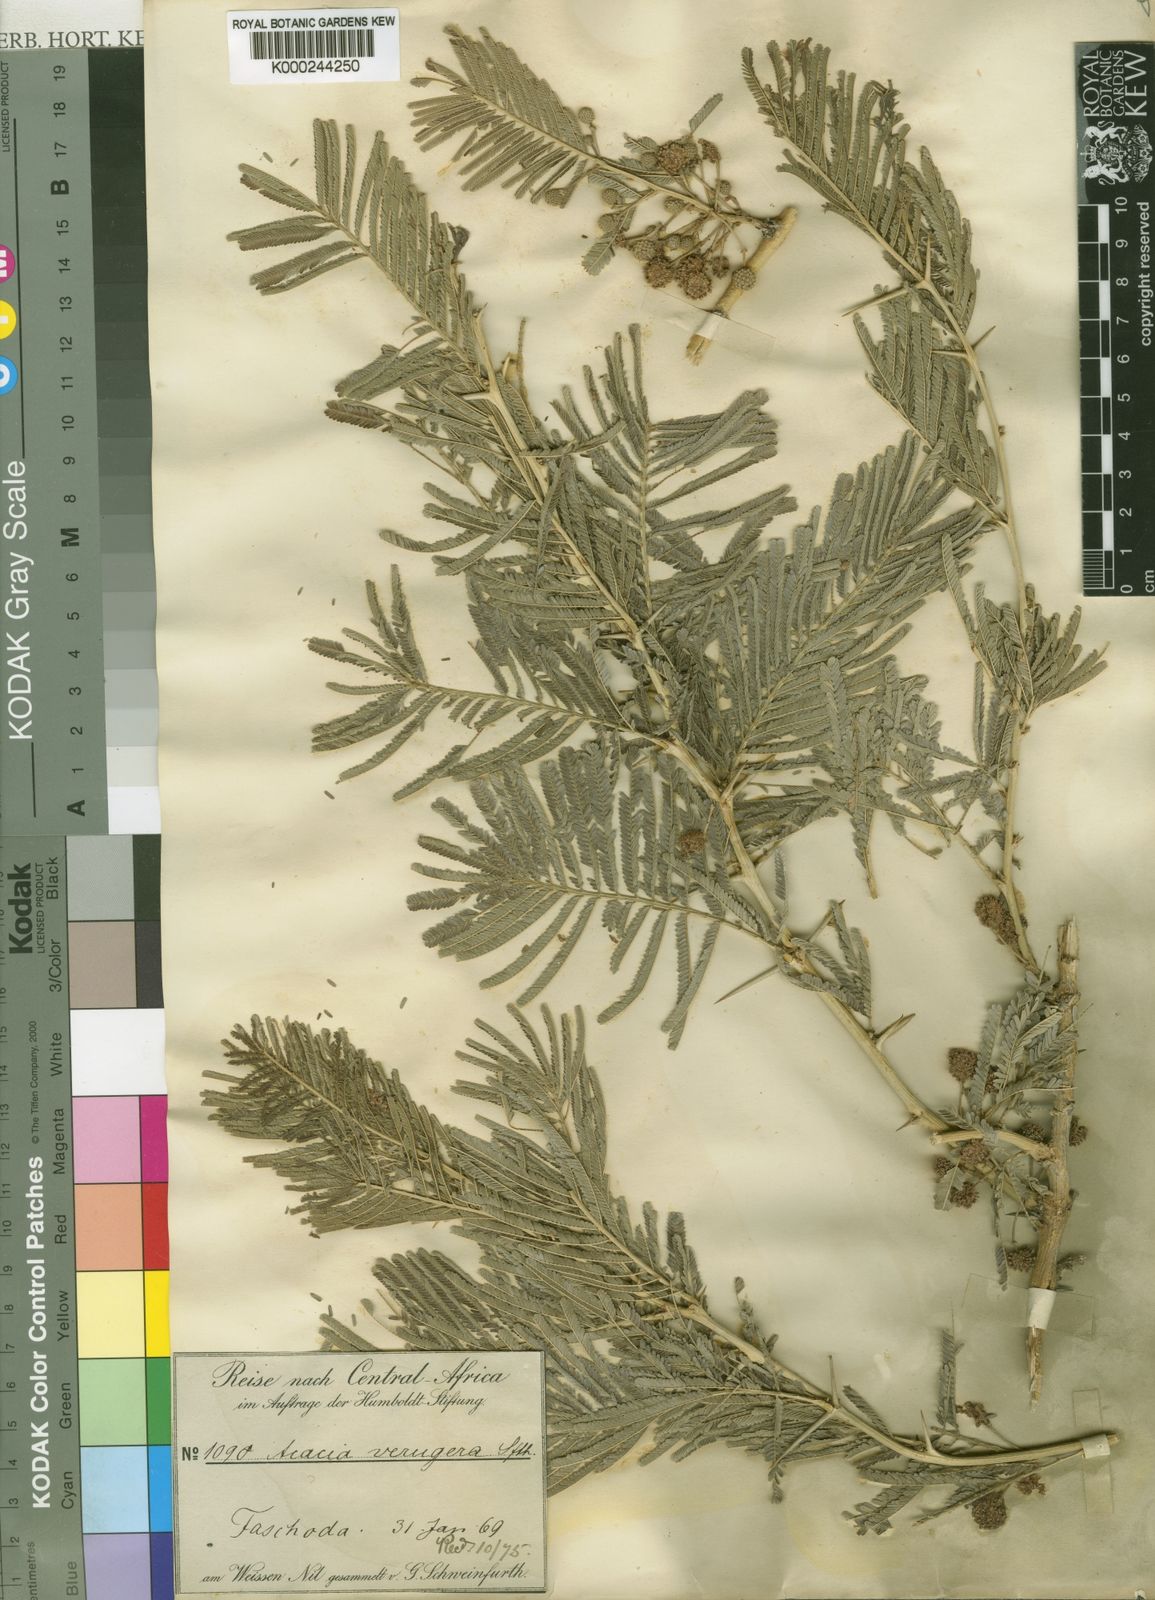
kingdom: Plantae
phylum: Tracheophyta
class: Magnoliopsida
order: Fabales
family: Fabaceae
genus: Vachellia
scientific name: Vachellia sieberiana
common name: Flat-topped thorn
